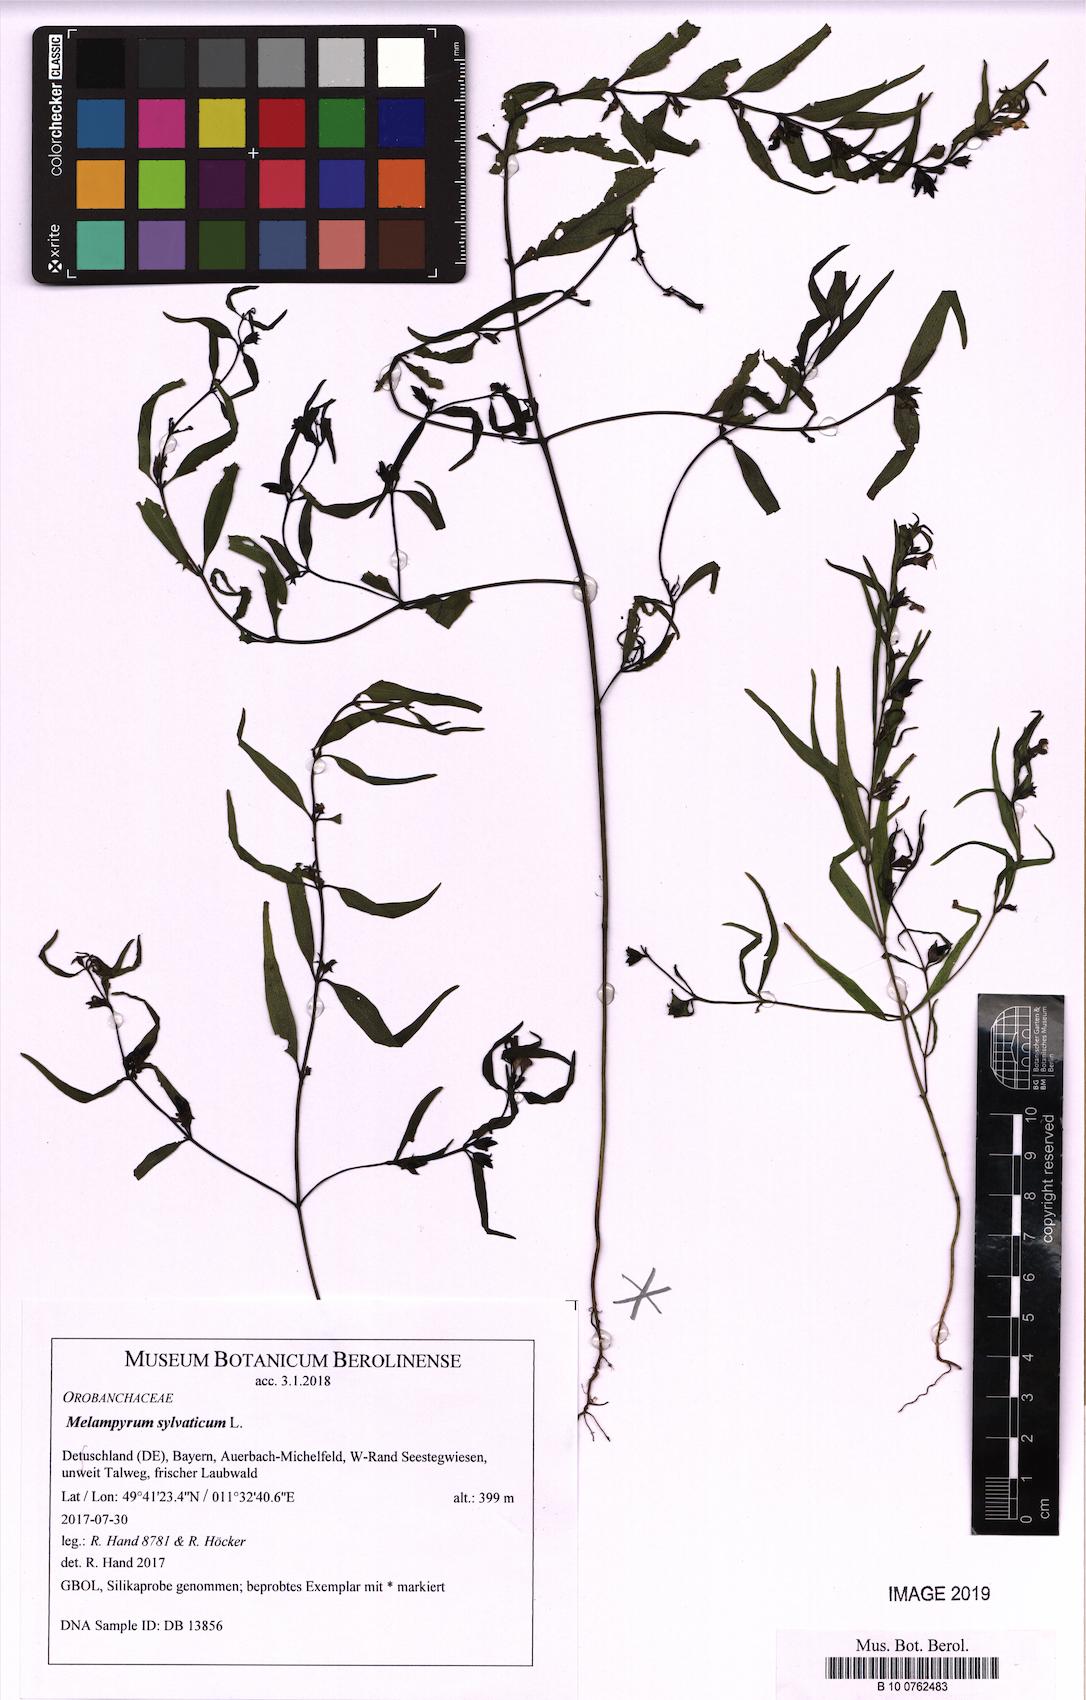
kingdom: Plantae
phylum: Tracheophyta
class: Magnoliopsida
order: Lamiales
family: Orobanchaceae
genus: Melampyrum
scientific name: Melampyrum sylvaticum
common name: Small cow-wheat
